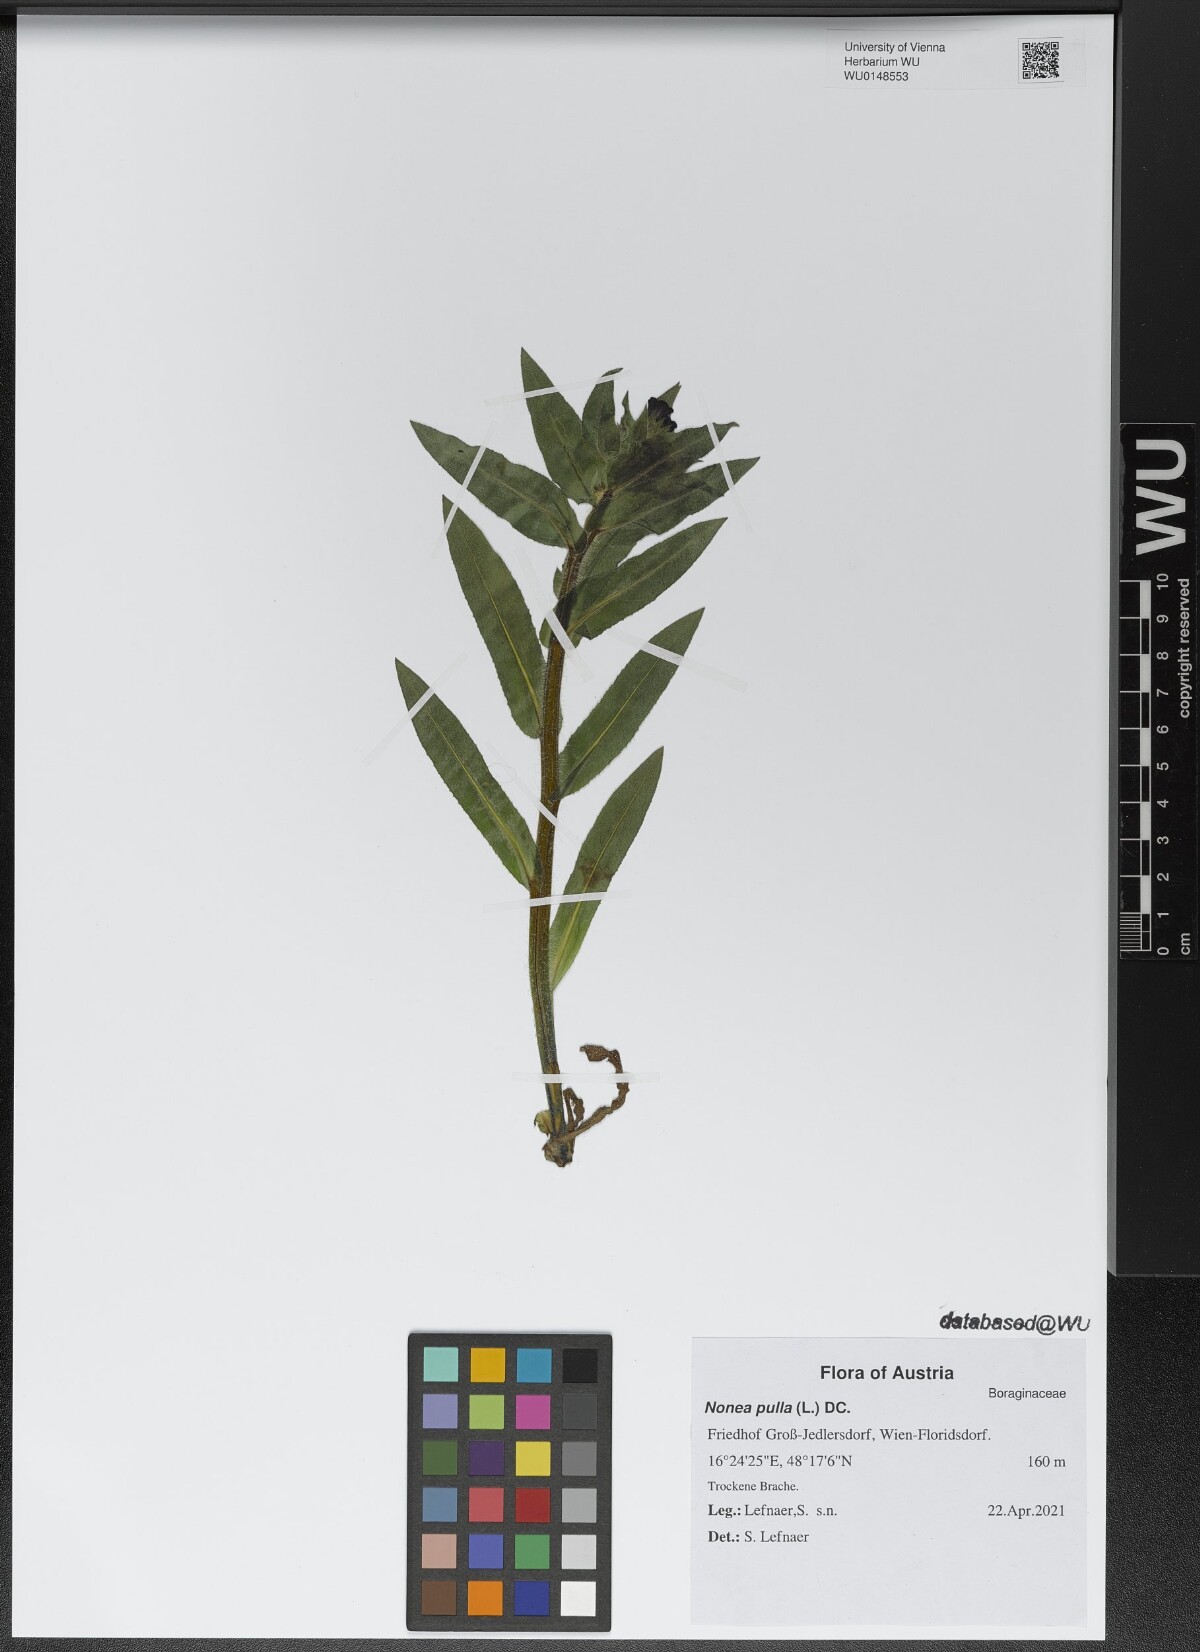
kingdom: Plantae
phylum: Tracheophyta
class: Magnoliopsida
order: Boraginales
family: Boraginaceae
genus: Nonea
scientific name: Nonea pulla
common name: Brown nonea
